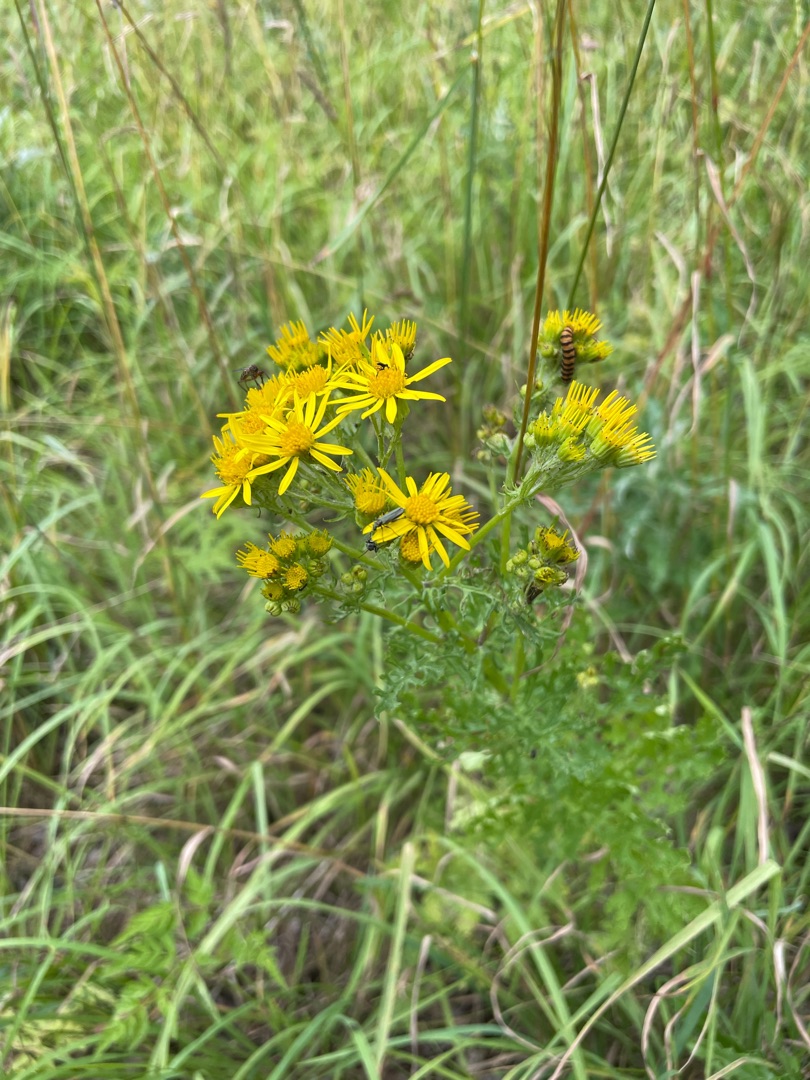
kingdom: Plantae
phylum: Tracheophyta
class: Magnoliopsida
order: Asterales
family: Asteraceae
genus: Jacobaea
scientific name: Jacobaea vulgaris
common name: Eng-brandbæger
